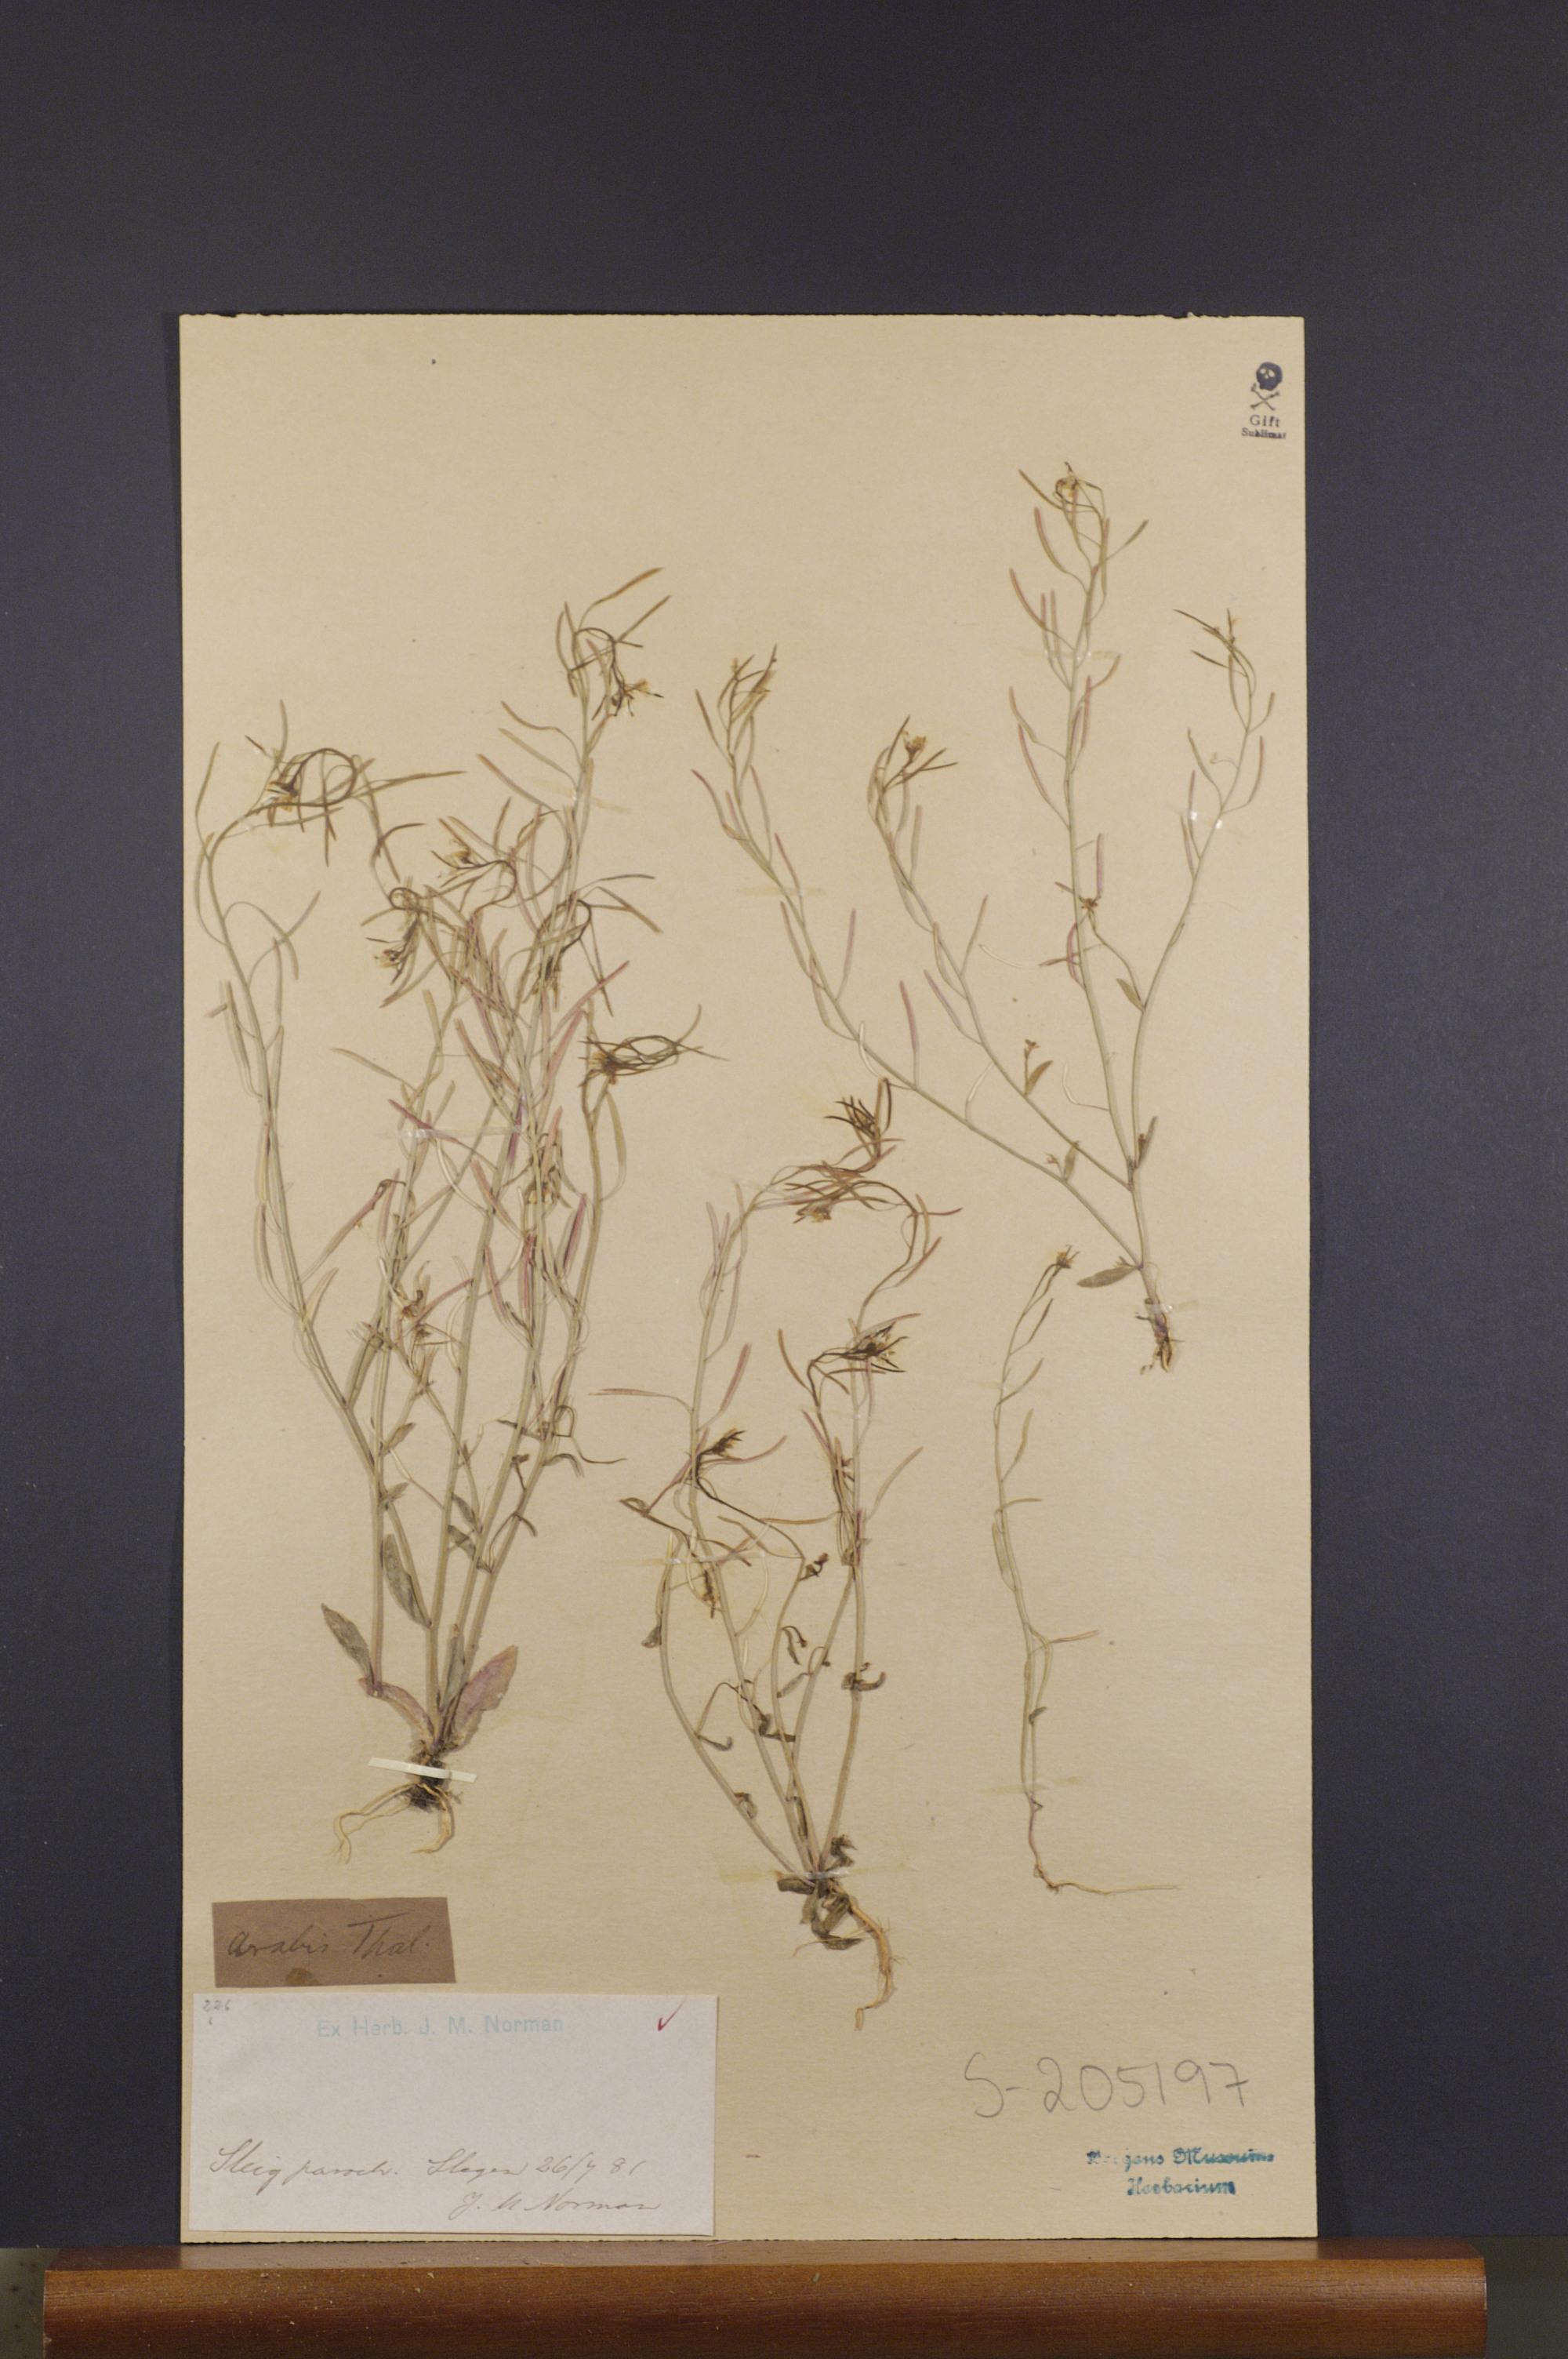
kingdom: Plantae
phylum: Tracheophyta
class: Magnoliopsida
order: Brassicales
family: Brassicaceae
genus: Arabidopsis
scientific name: Arabidopsis thaliana
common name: Thale cress
